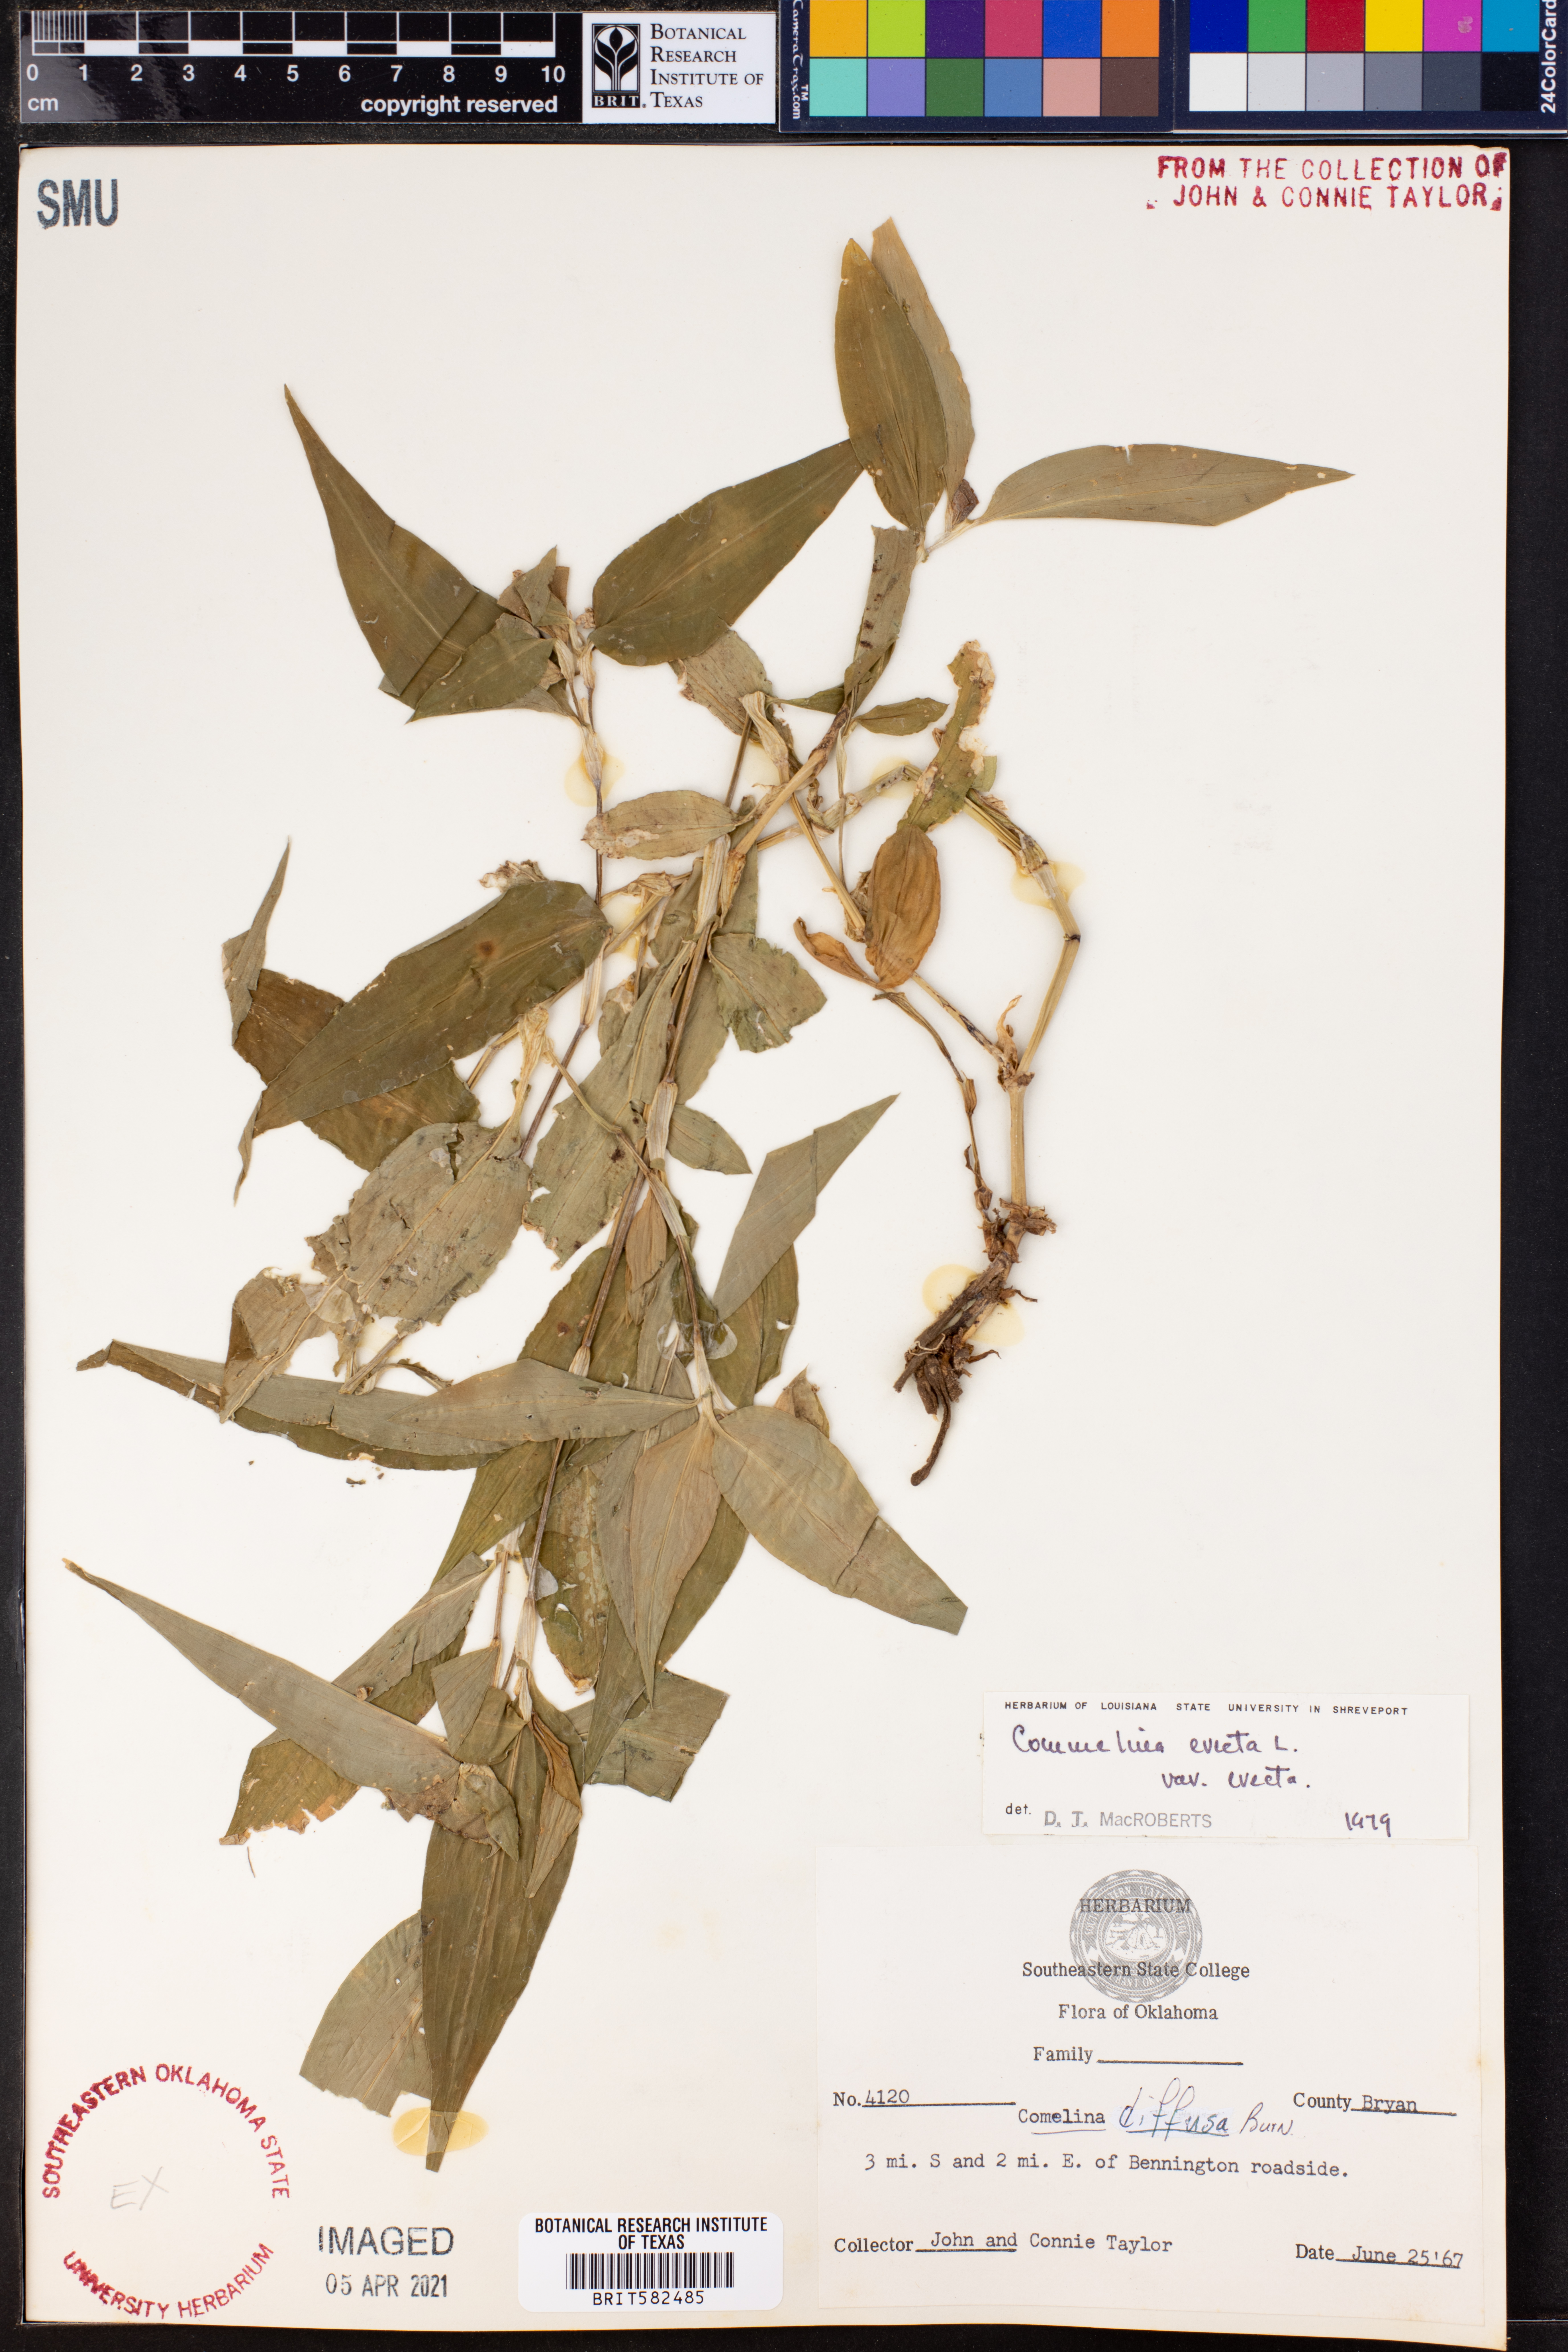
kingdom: Plantae
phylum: Tracheophyta
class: Liliopsida
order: Commelinales
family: Commelinaceae
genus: Commelina
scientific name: Commelina erecta
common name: Blousel blommetjie
